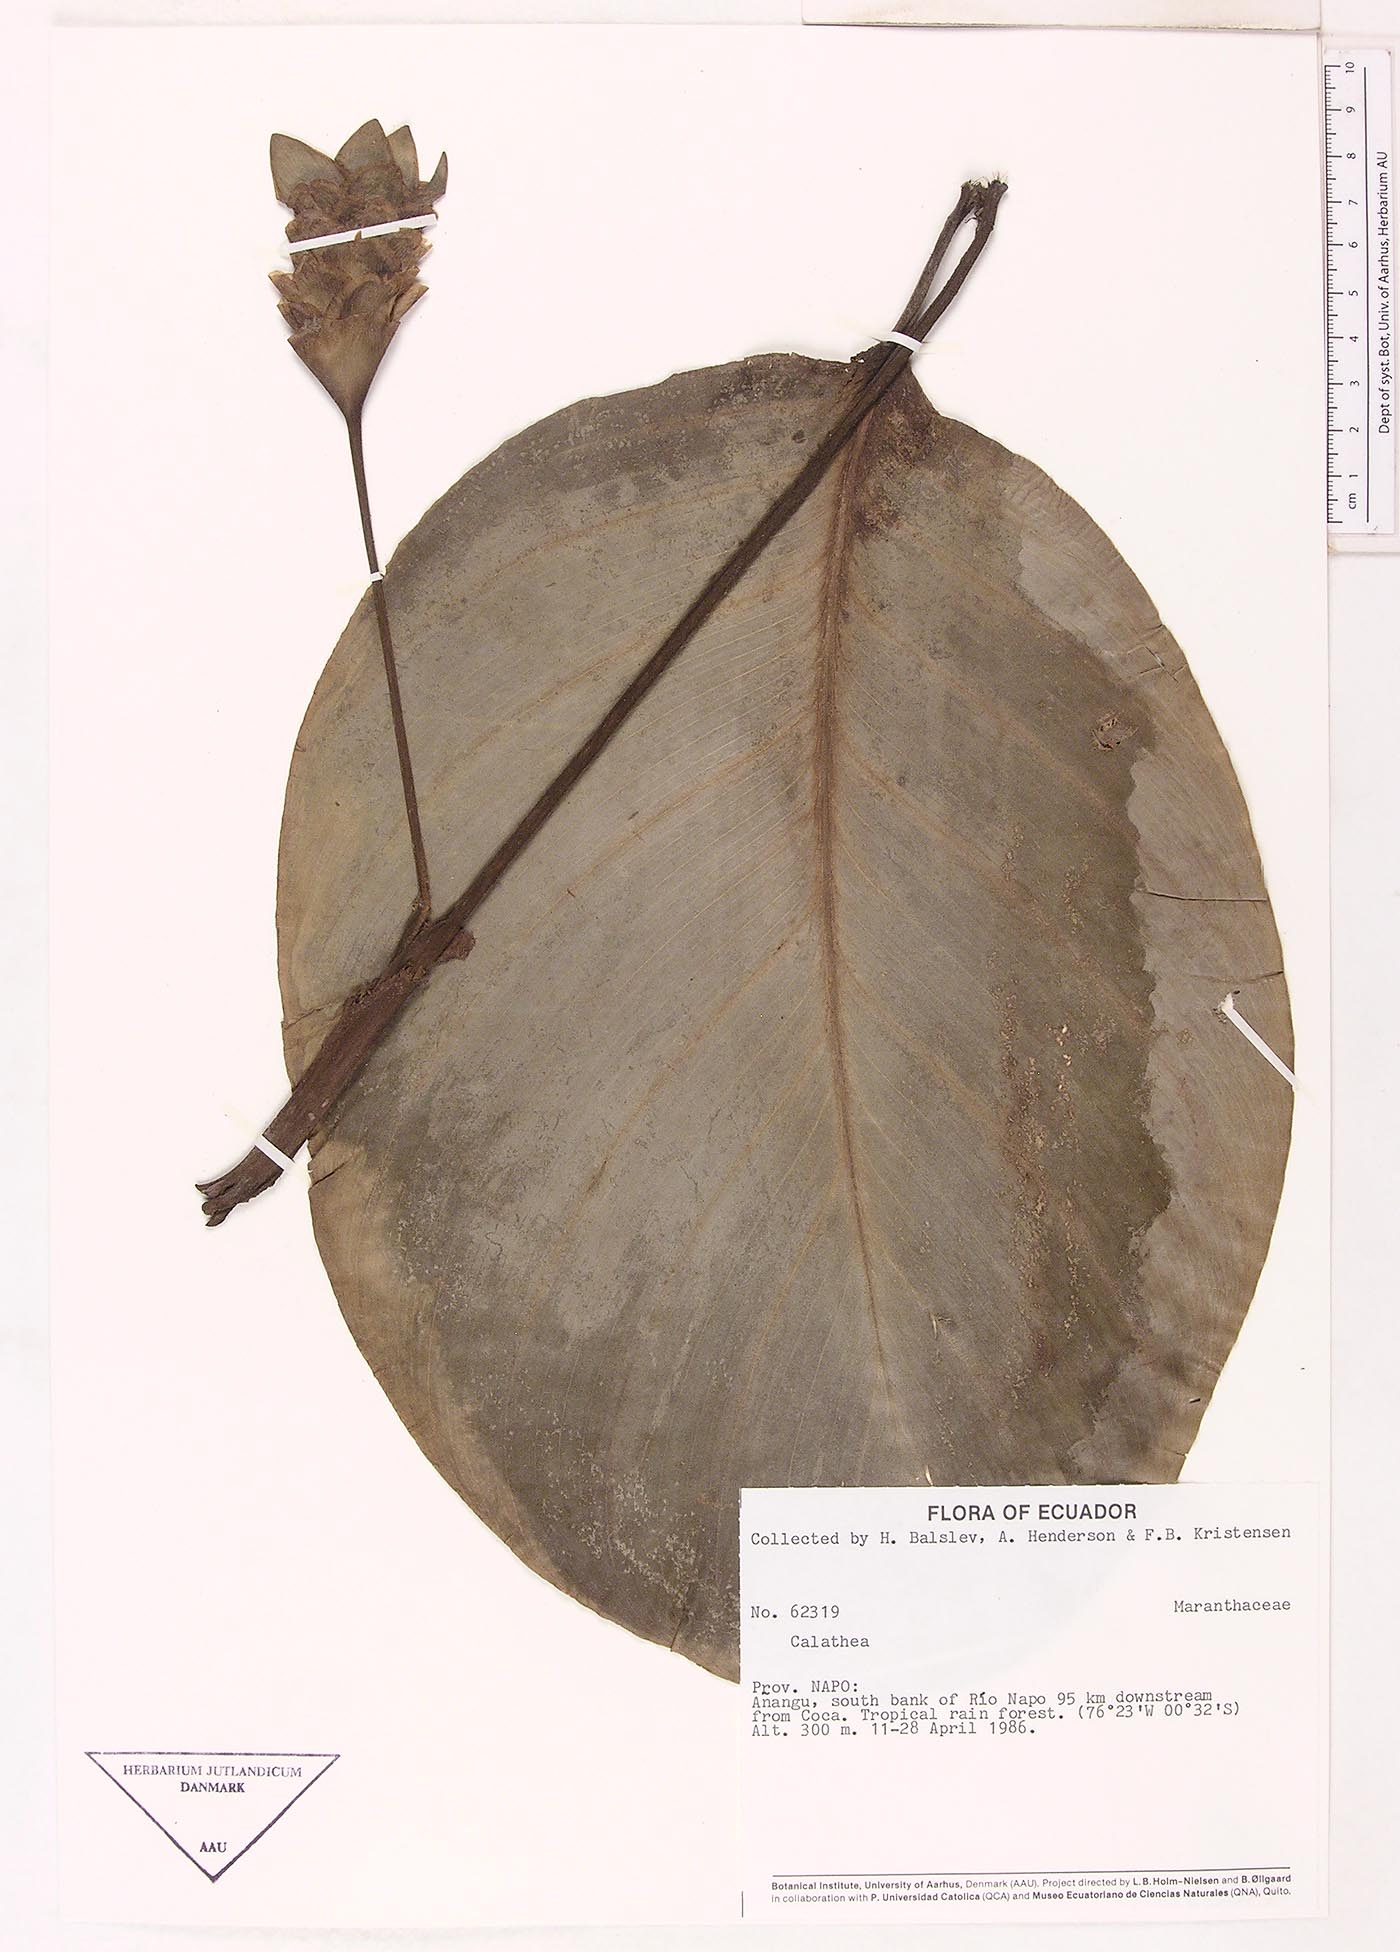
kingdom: Plantae
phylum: Tracheophyta
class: Magnoliopsida
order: Laurales
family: Lauraceae
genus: Goeppertia
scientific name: Goeppertia
